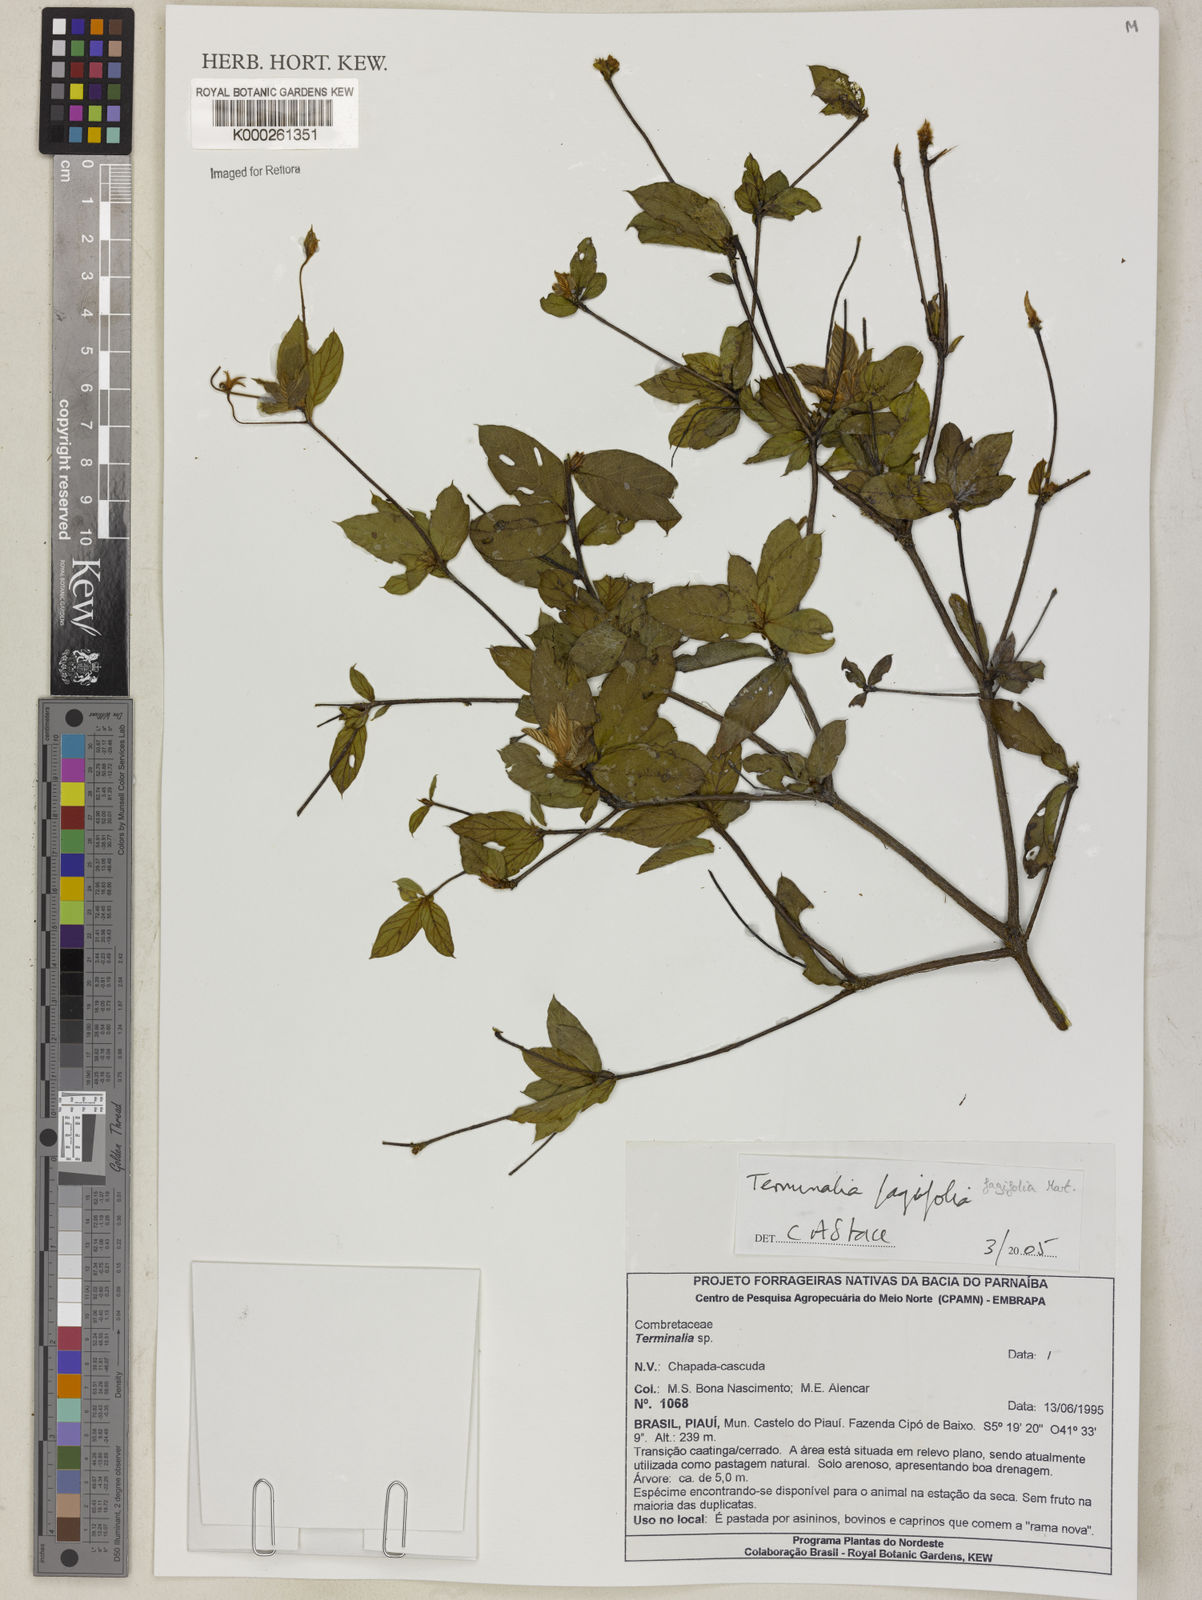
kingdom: Plantae
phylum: Tracheophyta
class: Magnoliopsida
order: Myrtales
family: Combretaceae
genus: Terminalia
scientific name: Terminalia fagifolia
